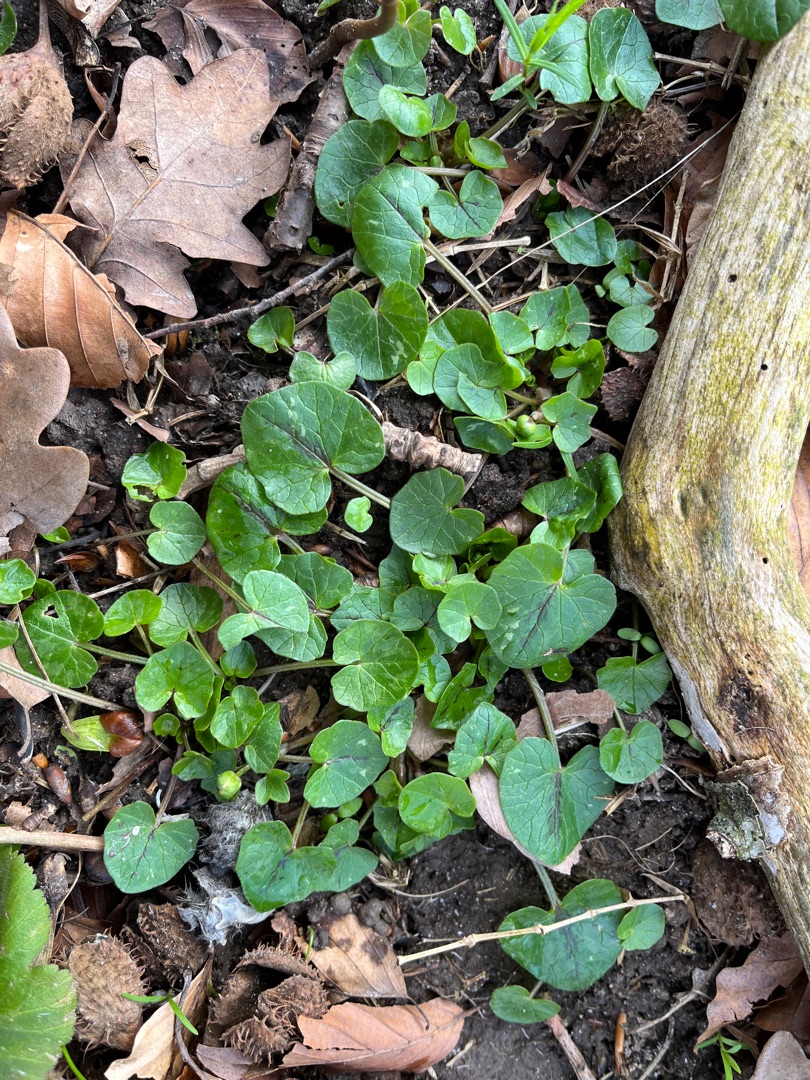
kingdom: Plantae
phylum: Tracheophyta
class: Magnoliopsida
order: Ranunculales
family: Ranunculaceae
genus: Ficaria
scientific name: Ficaria verna
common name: Vorterod
